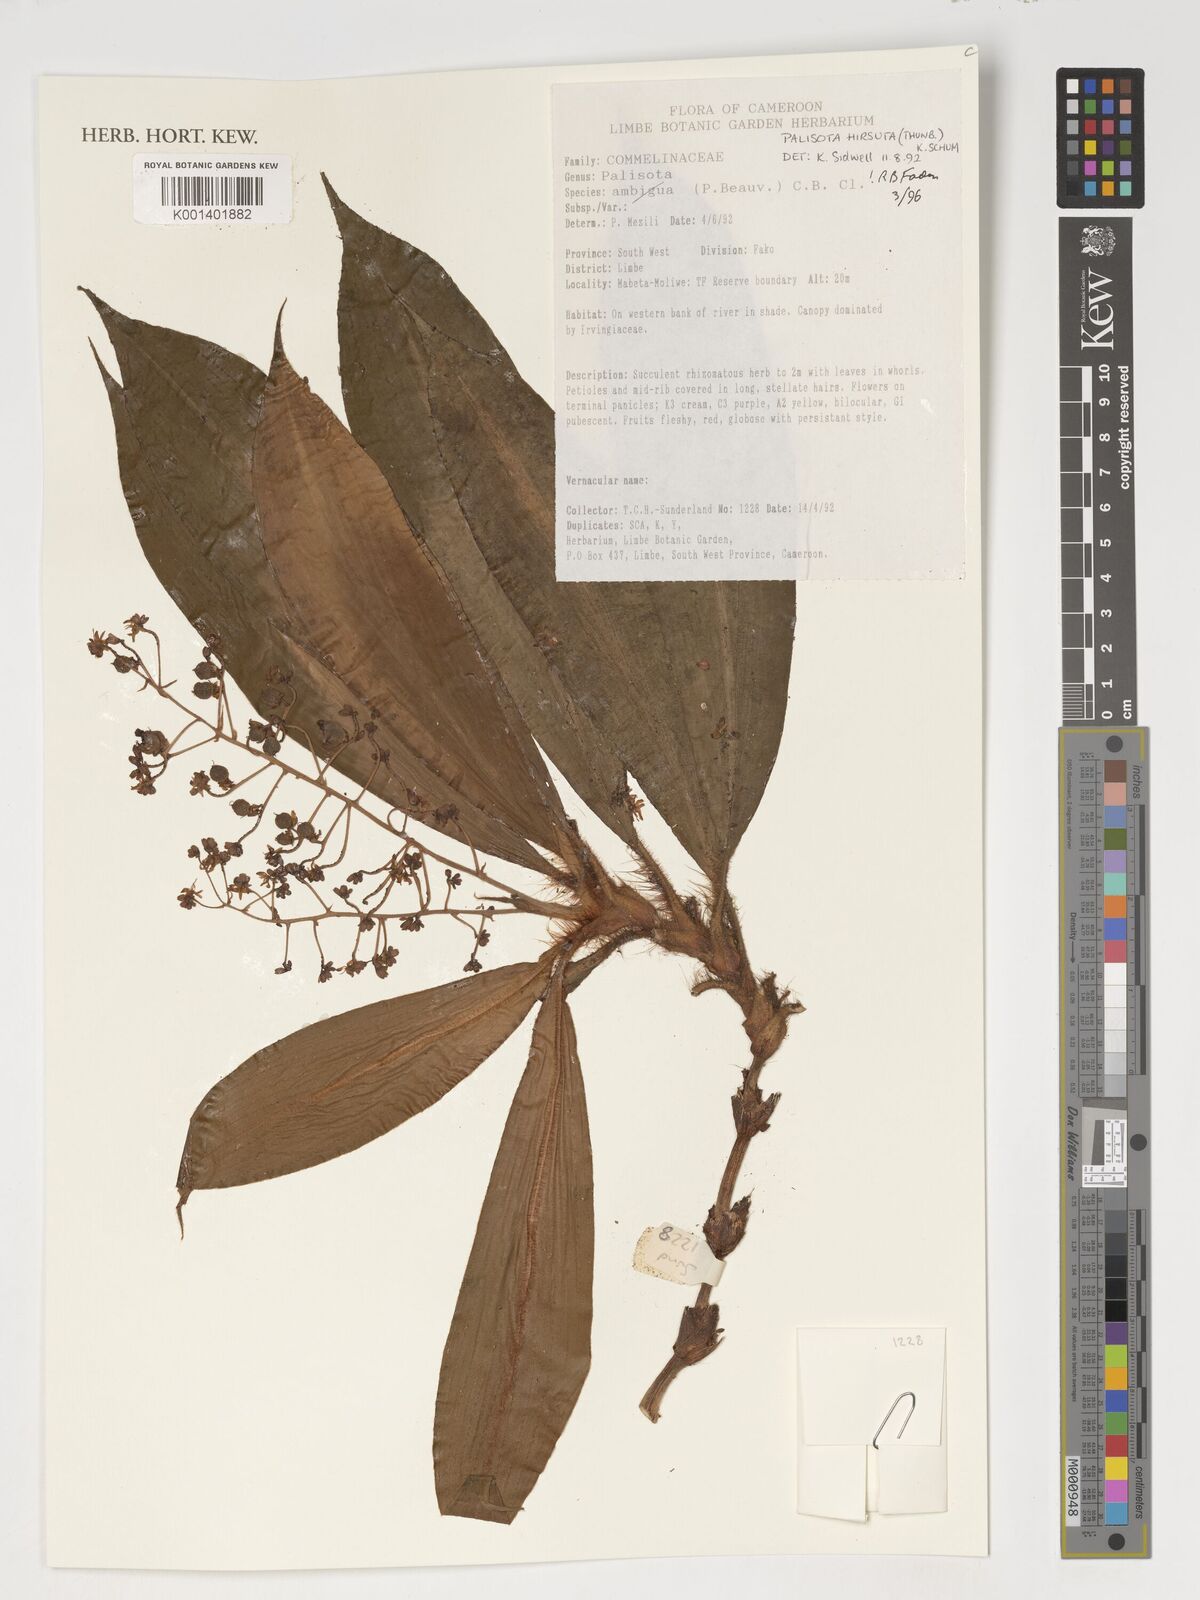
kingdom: Plantae
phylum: Tracheophyta
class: Liliopsida
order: Commelinales
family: Commelinaceae
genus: Palisota
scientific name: Palisota hirsuta
